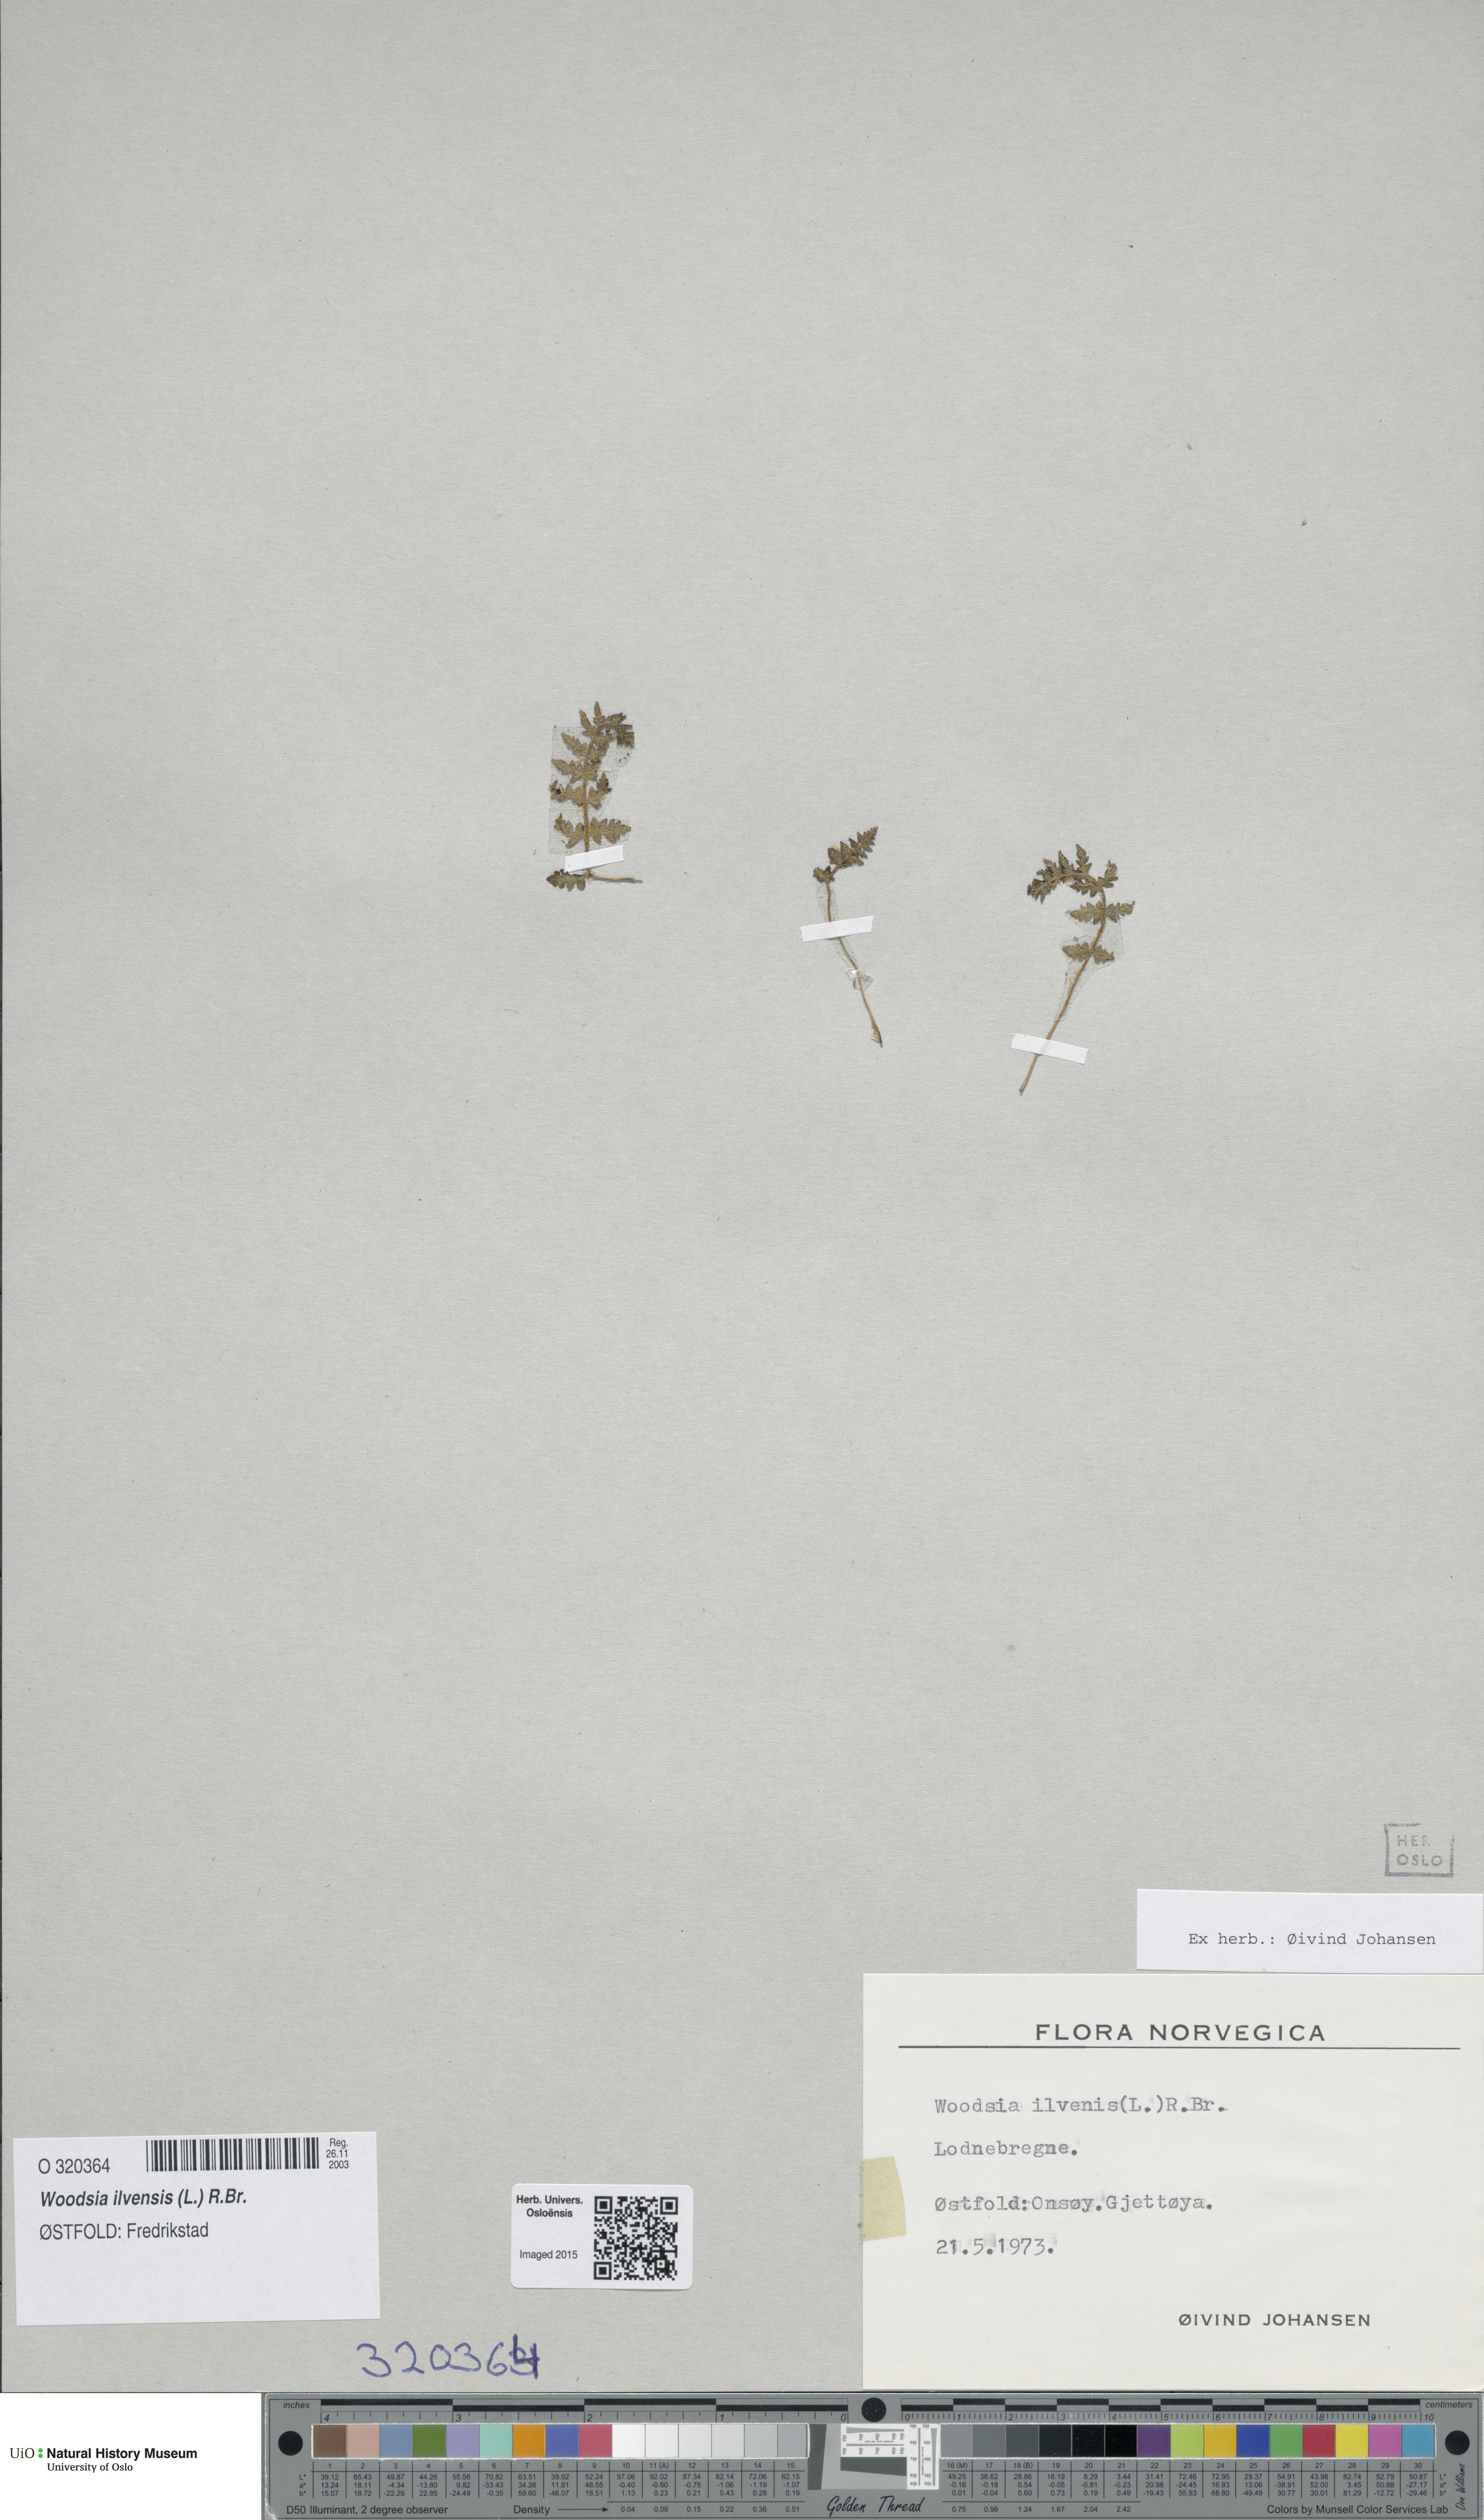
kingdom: Plantae
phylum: Tracheophyta
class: Polypodiopsida
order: Polypodiales
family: Woodsiaceae
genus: Woodsia
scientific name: Woodsia ilvensis
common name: Fragrant woodsia
